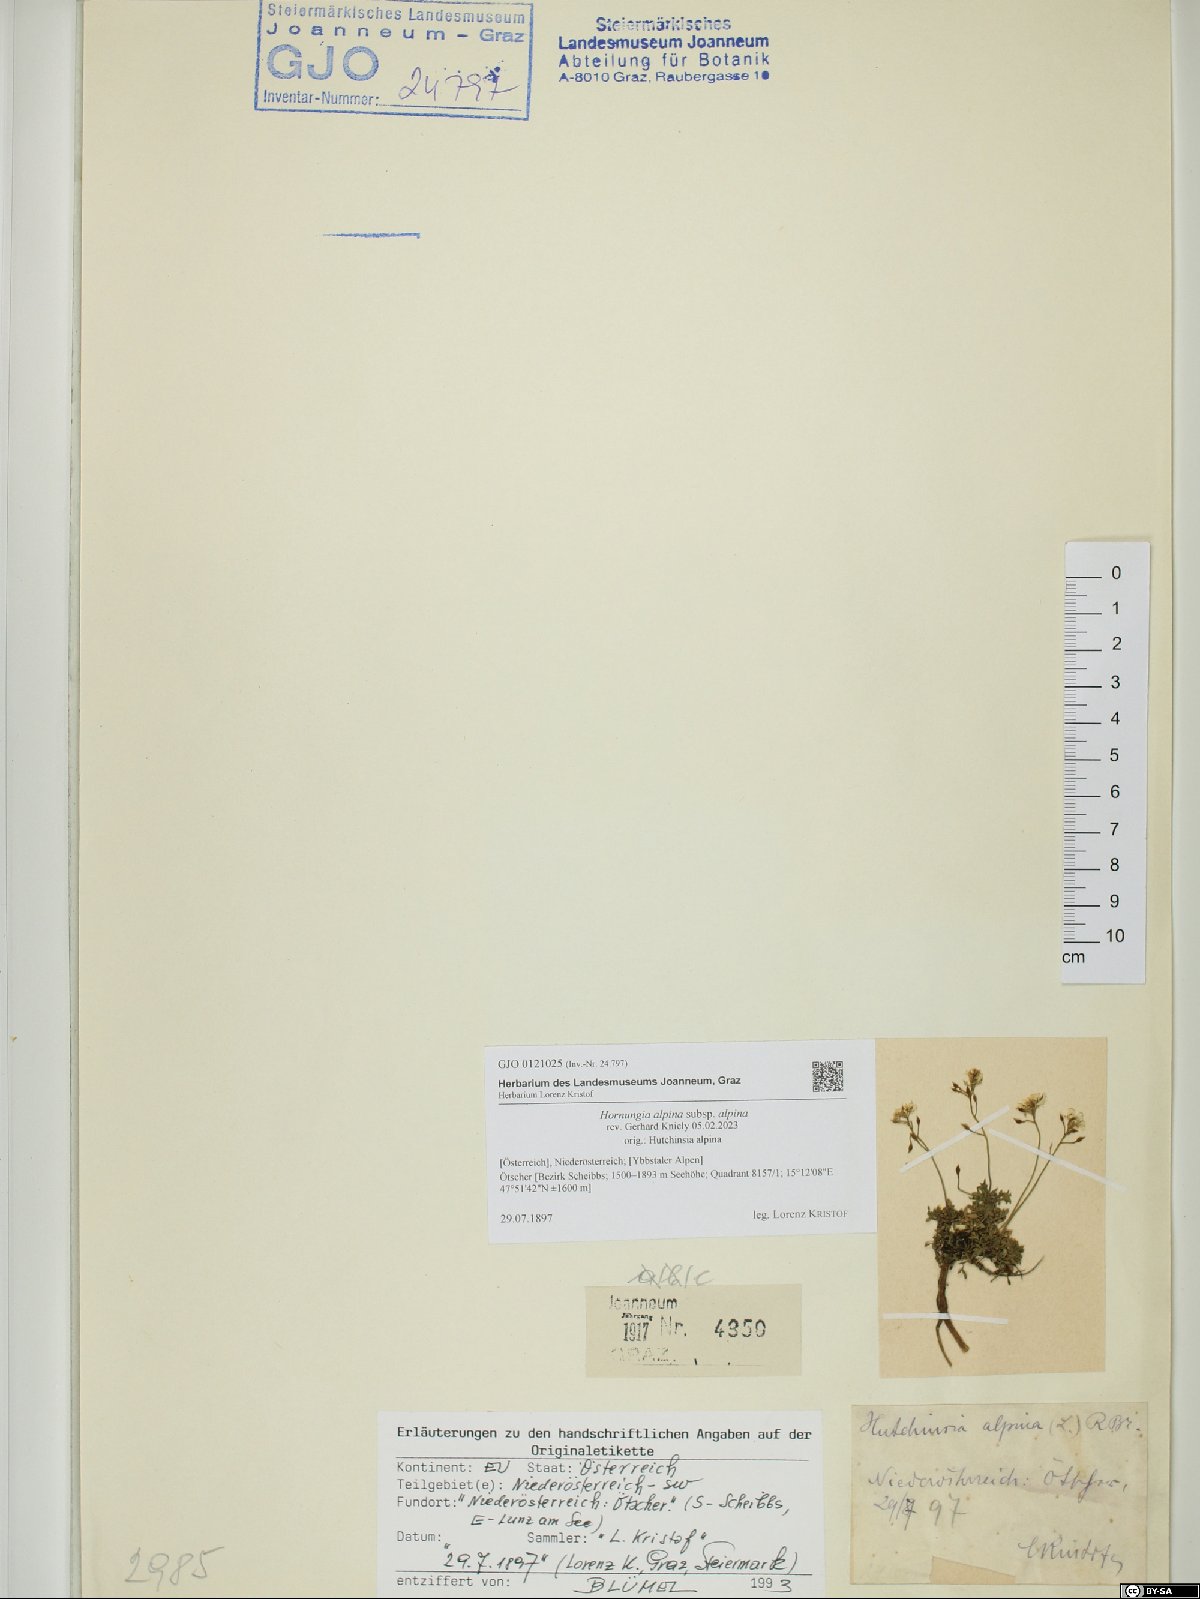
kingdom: Plantae
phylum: Tracheophyta
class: Magnoliopsida
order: Brassicales
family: Brassicaceae
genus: Hornungia
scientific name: Hornungia alpina
